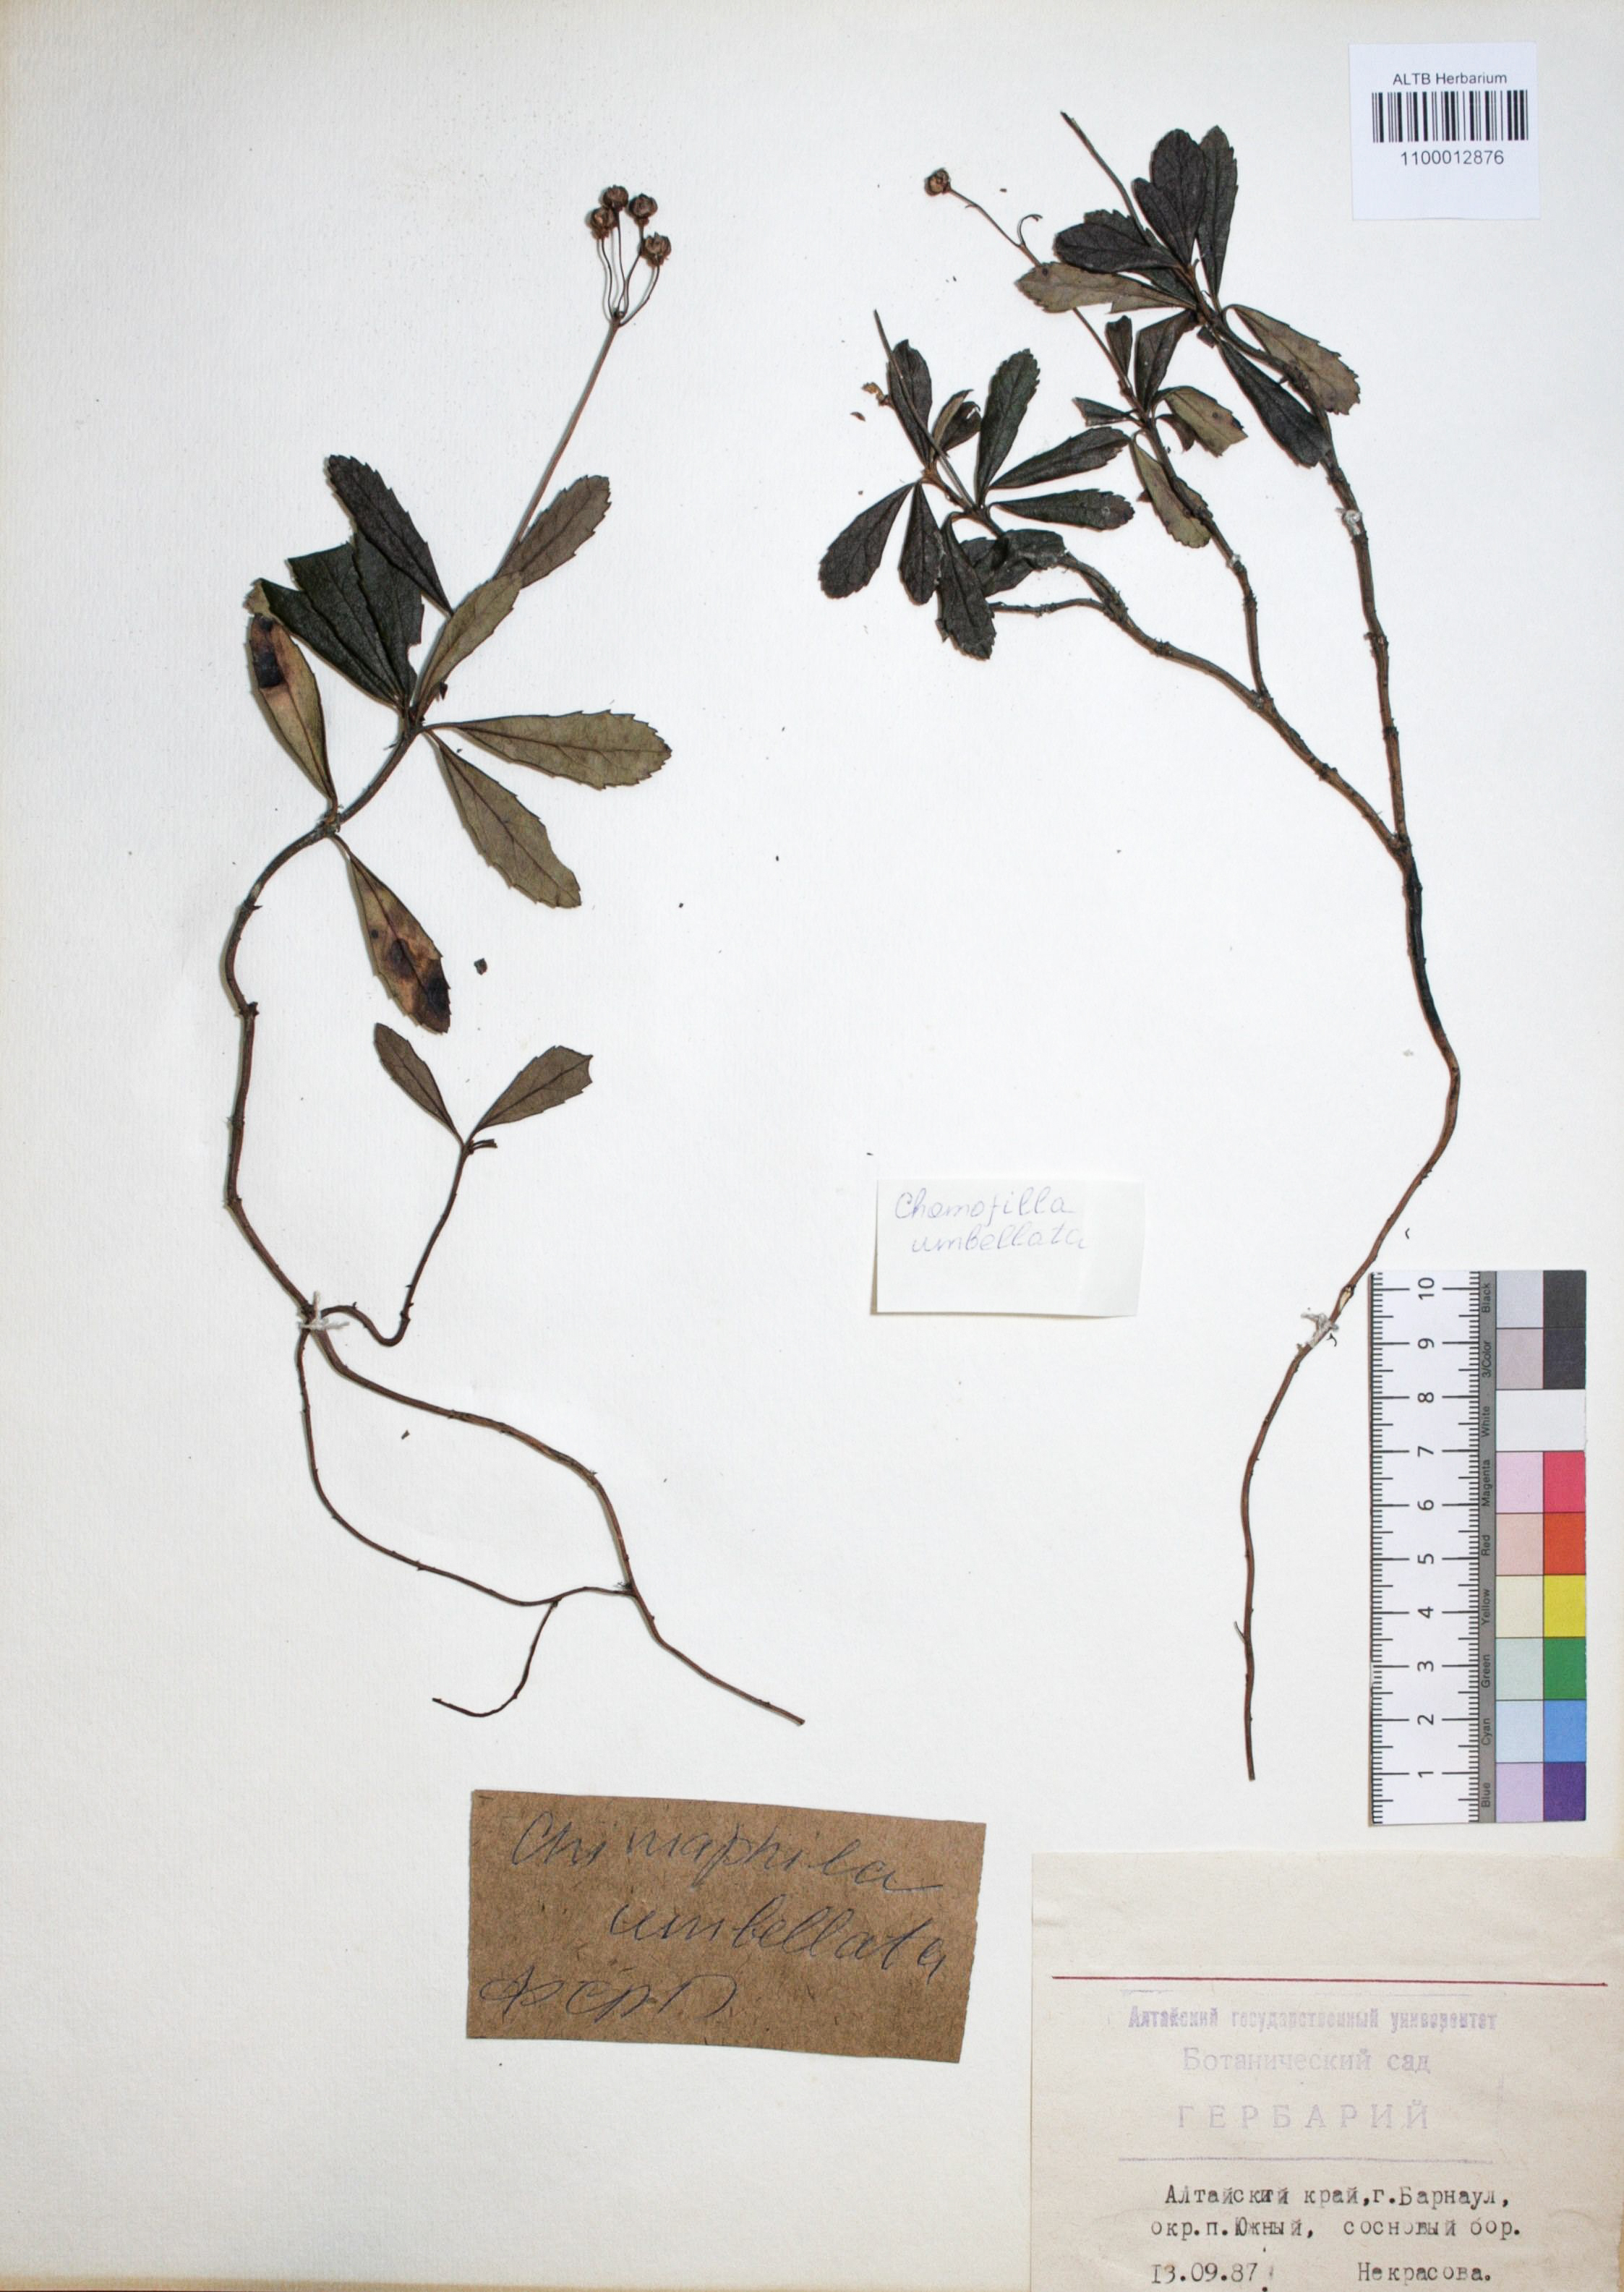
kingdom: Plantae
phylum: Tracheophyta
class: Magnoliopsida
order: Ericales
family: Ericaceae
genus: Chimaphila
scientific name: Chimaphila umbellata
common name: Pipsissewa
